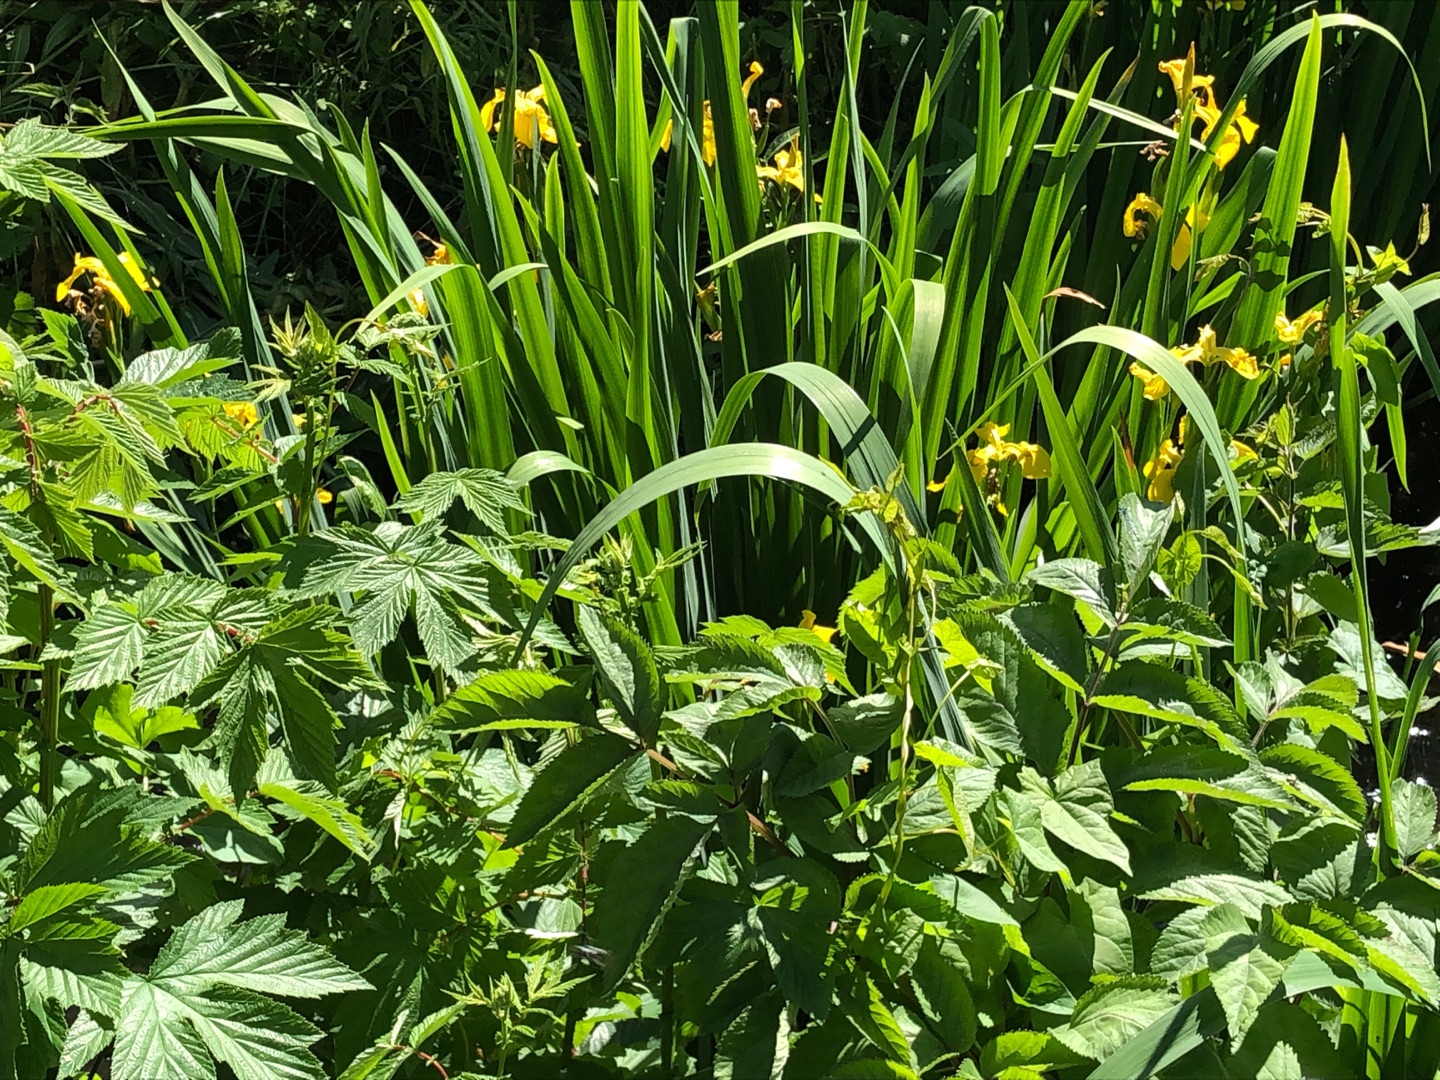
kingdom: Plantae
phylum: Tracheophyta
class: Liliopsida
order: Asparagales
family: Iridaceae
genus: Iris
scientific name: Iris pseudacorus
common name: Gul iris
